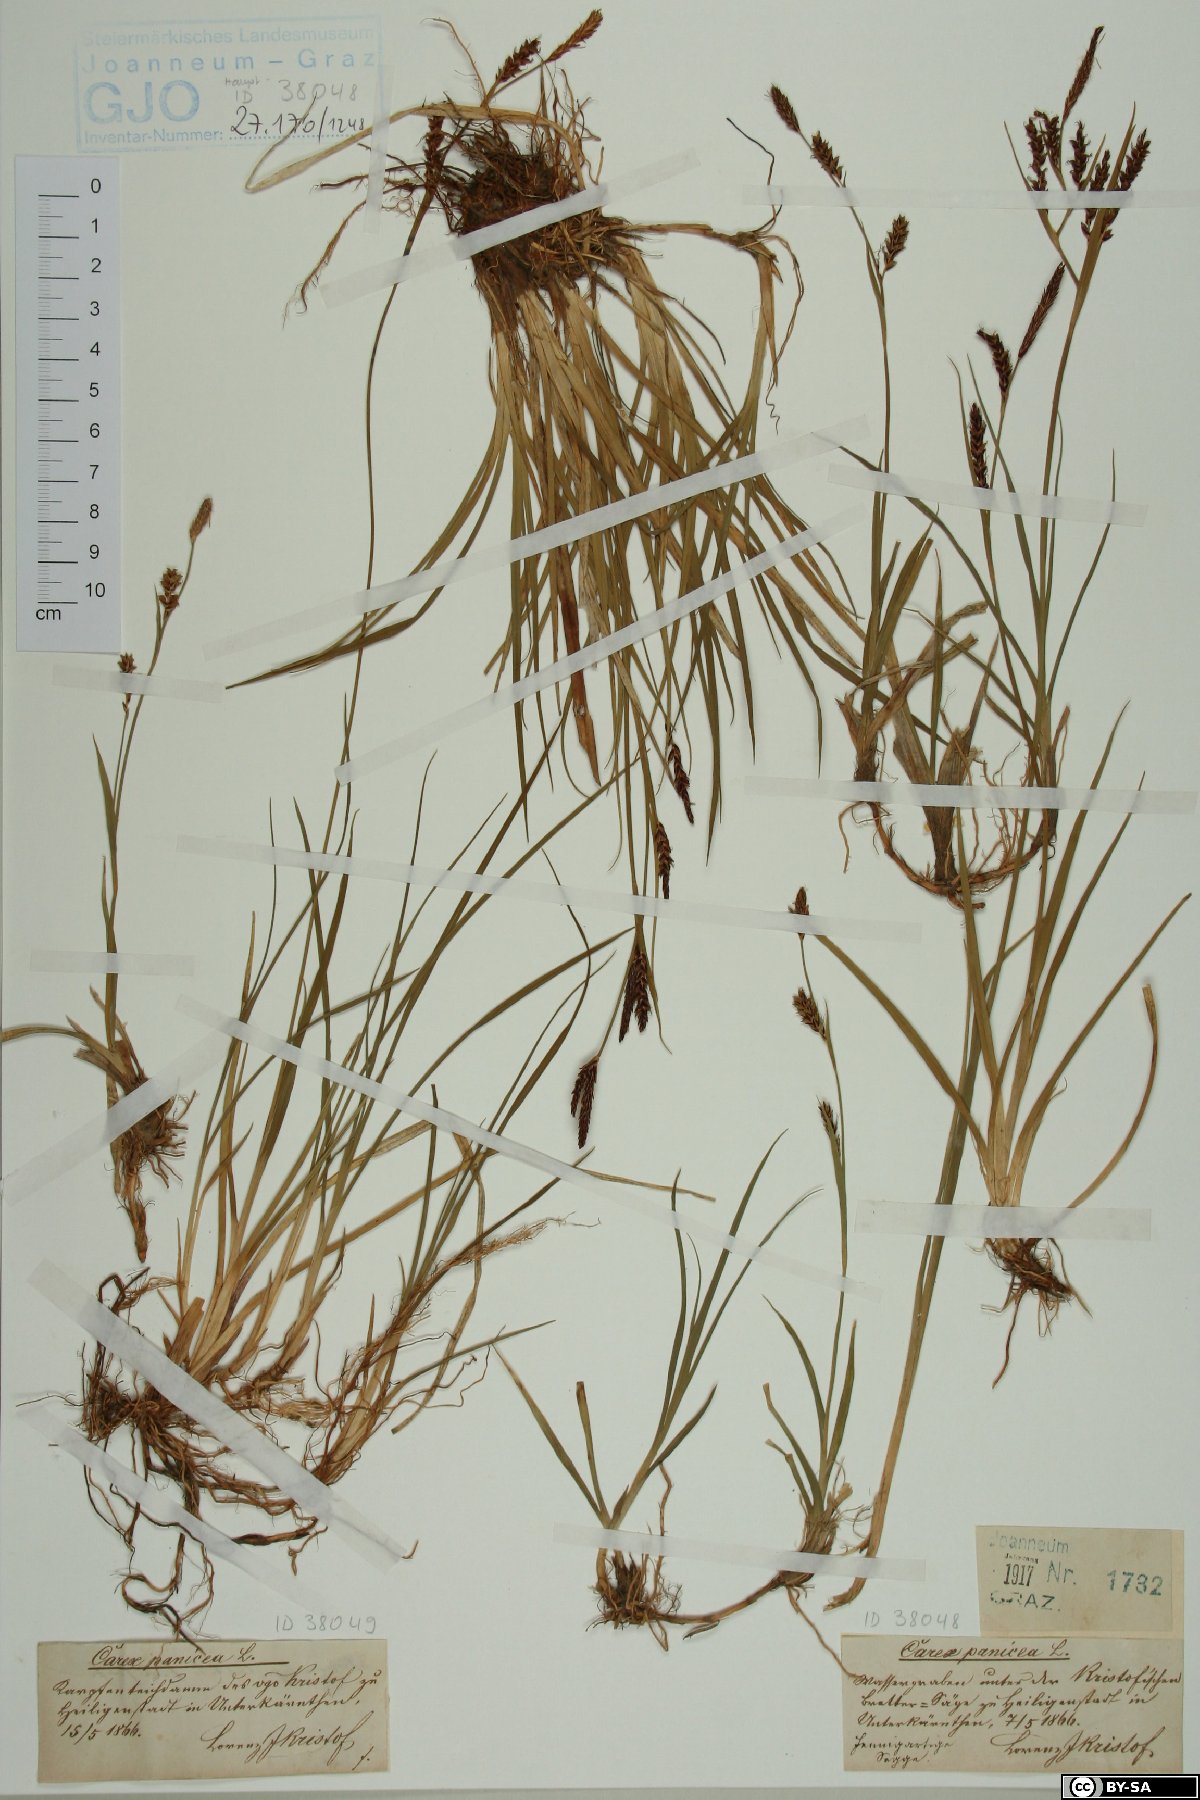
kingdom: Plantae
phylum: Tracheophyta
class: Liliopsida
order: Poales
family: Cyperaceae
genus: Carex
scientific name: Carex panicea
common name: Carnation sedge
